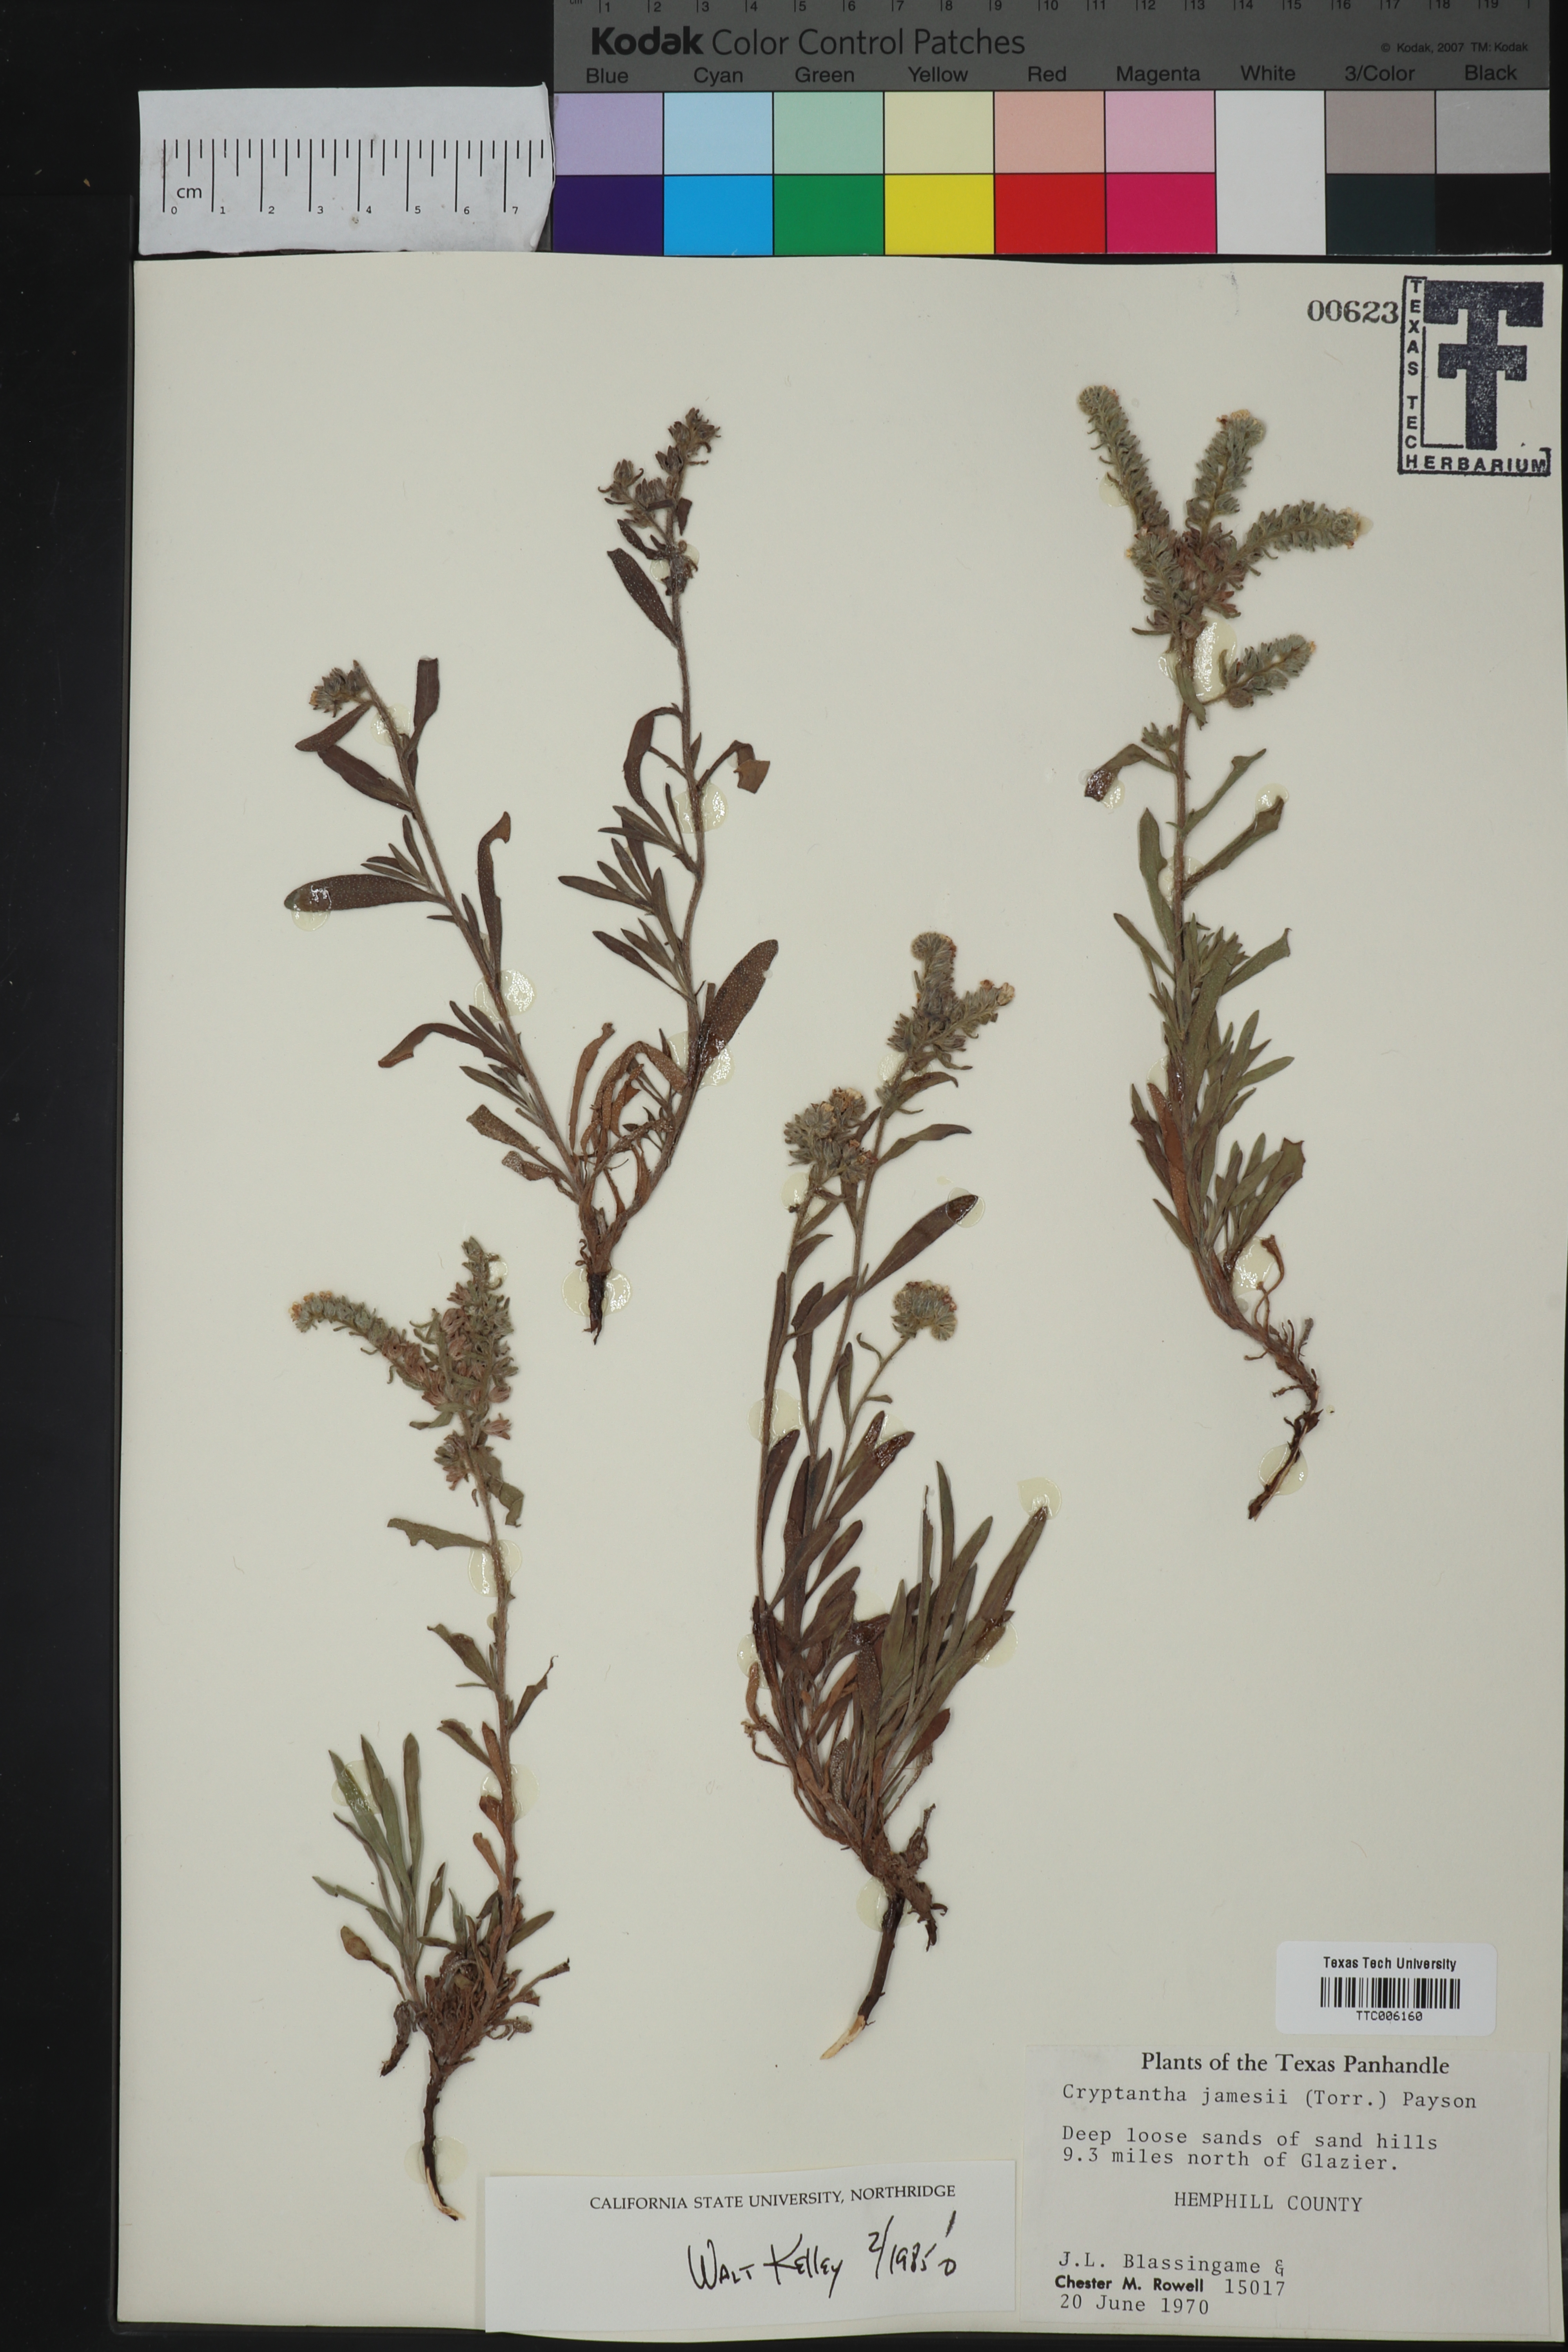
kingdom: Plantae
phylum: Tracheophyta
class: Magnoliopsida
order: Boraginales
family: Boraginaceae
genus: Oreocarya
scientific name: Oreocarya suffruticosa
